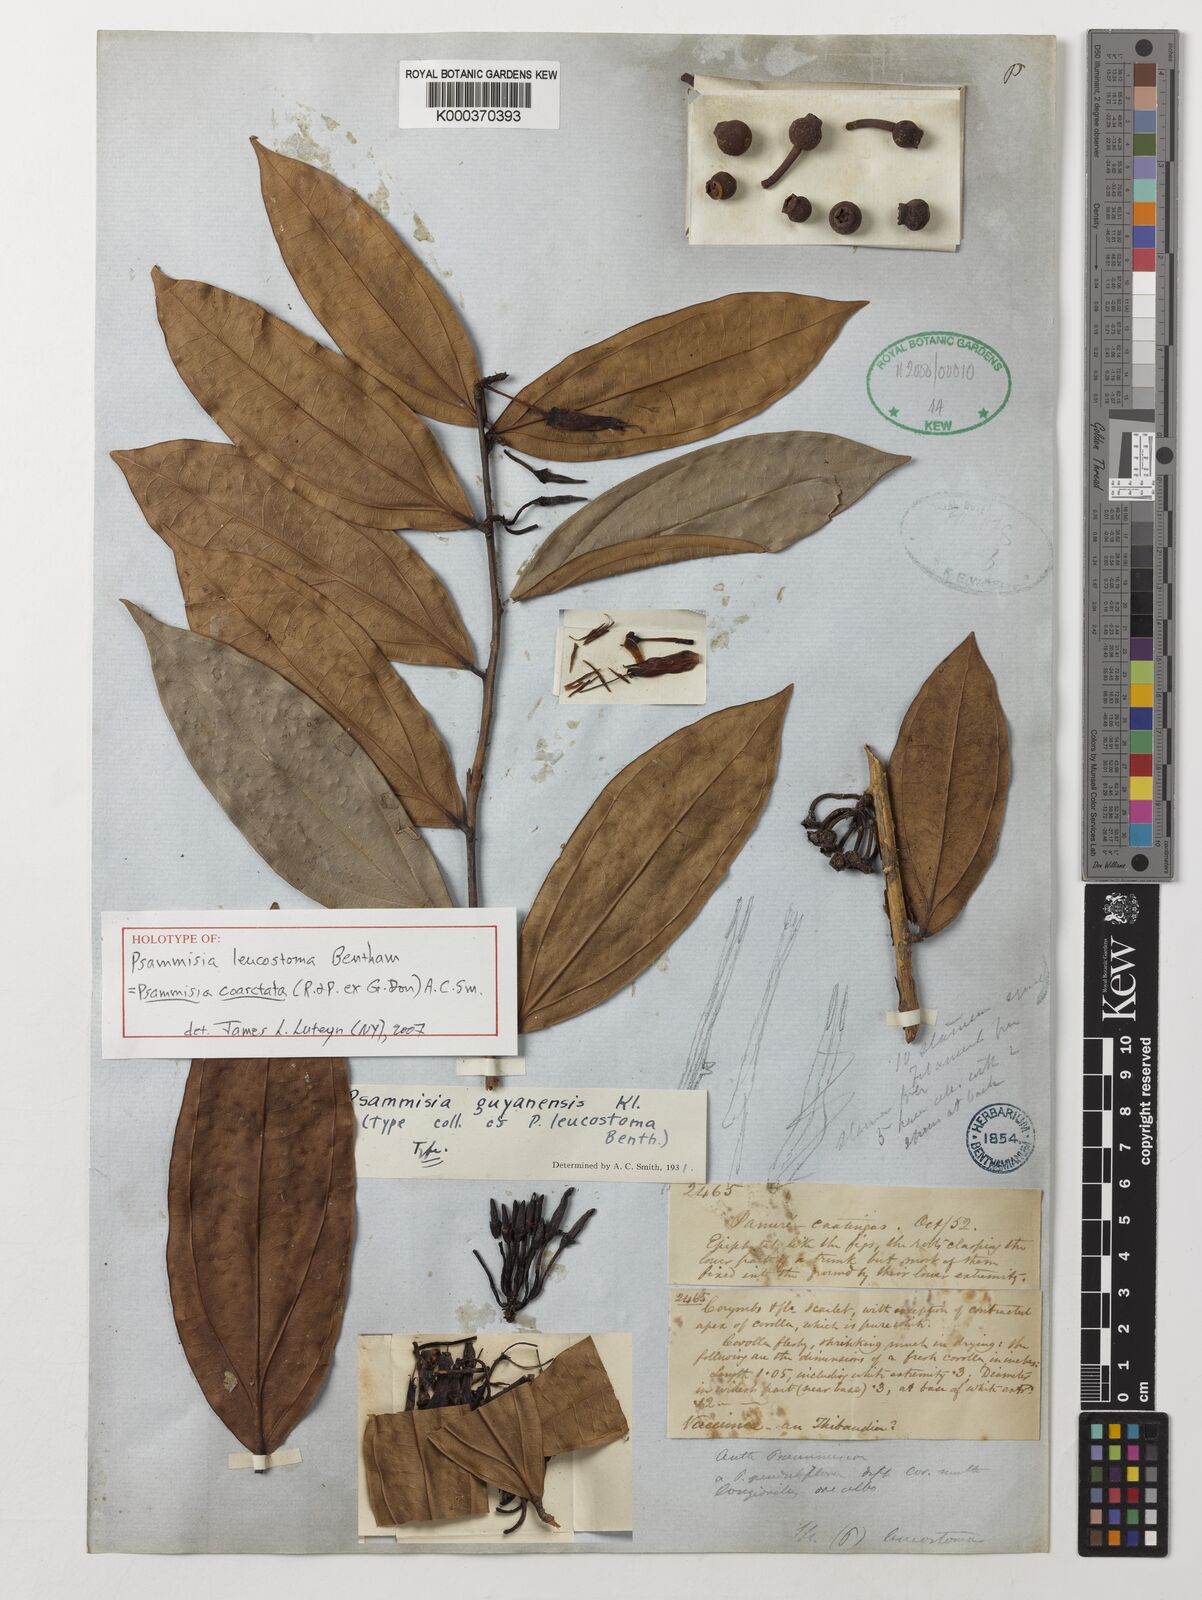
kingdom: Plantae
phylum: Tracheophyta
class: Magnoliopsida
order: Ericales
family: Ericaceae
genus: Psammisia
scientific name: Psammisia coarctata
